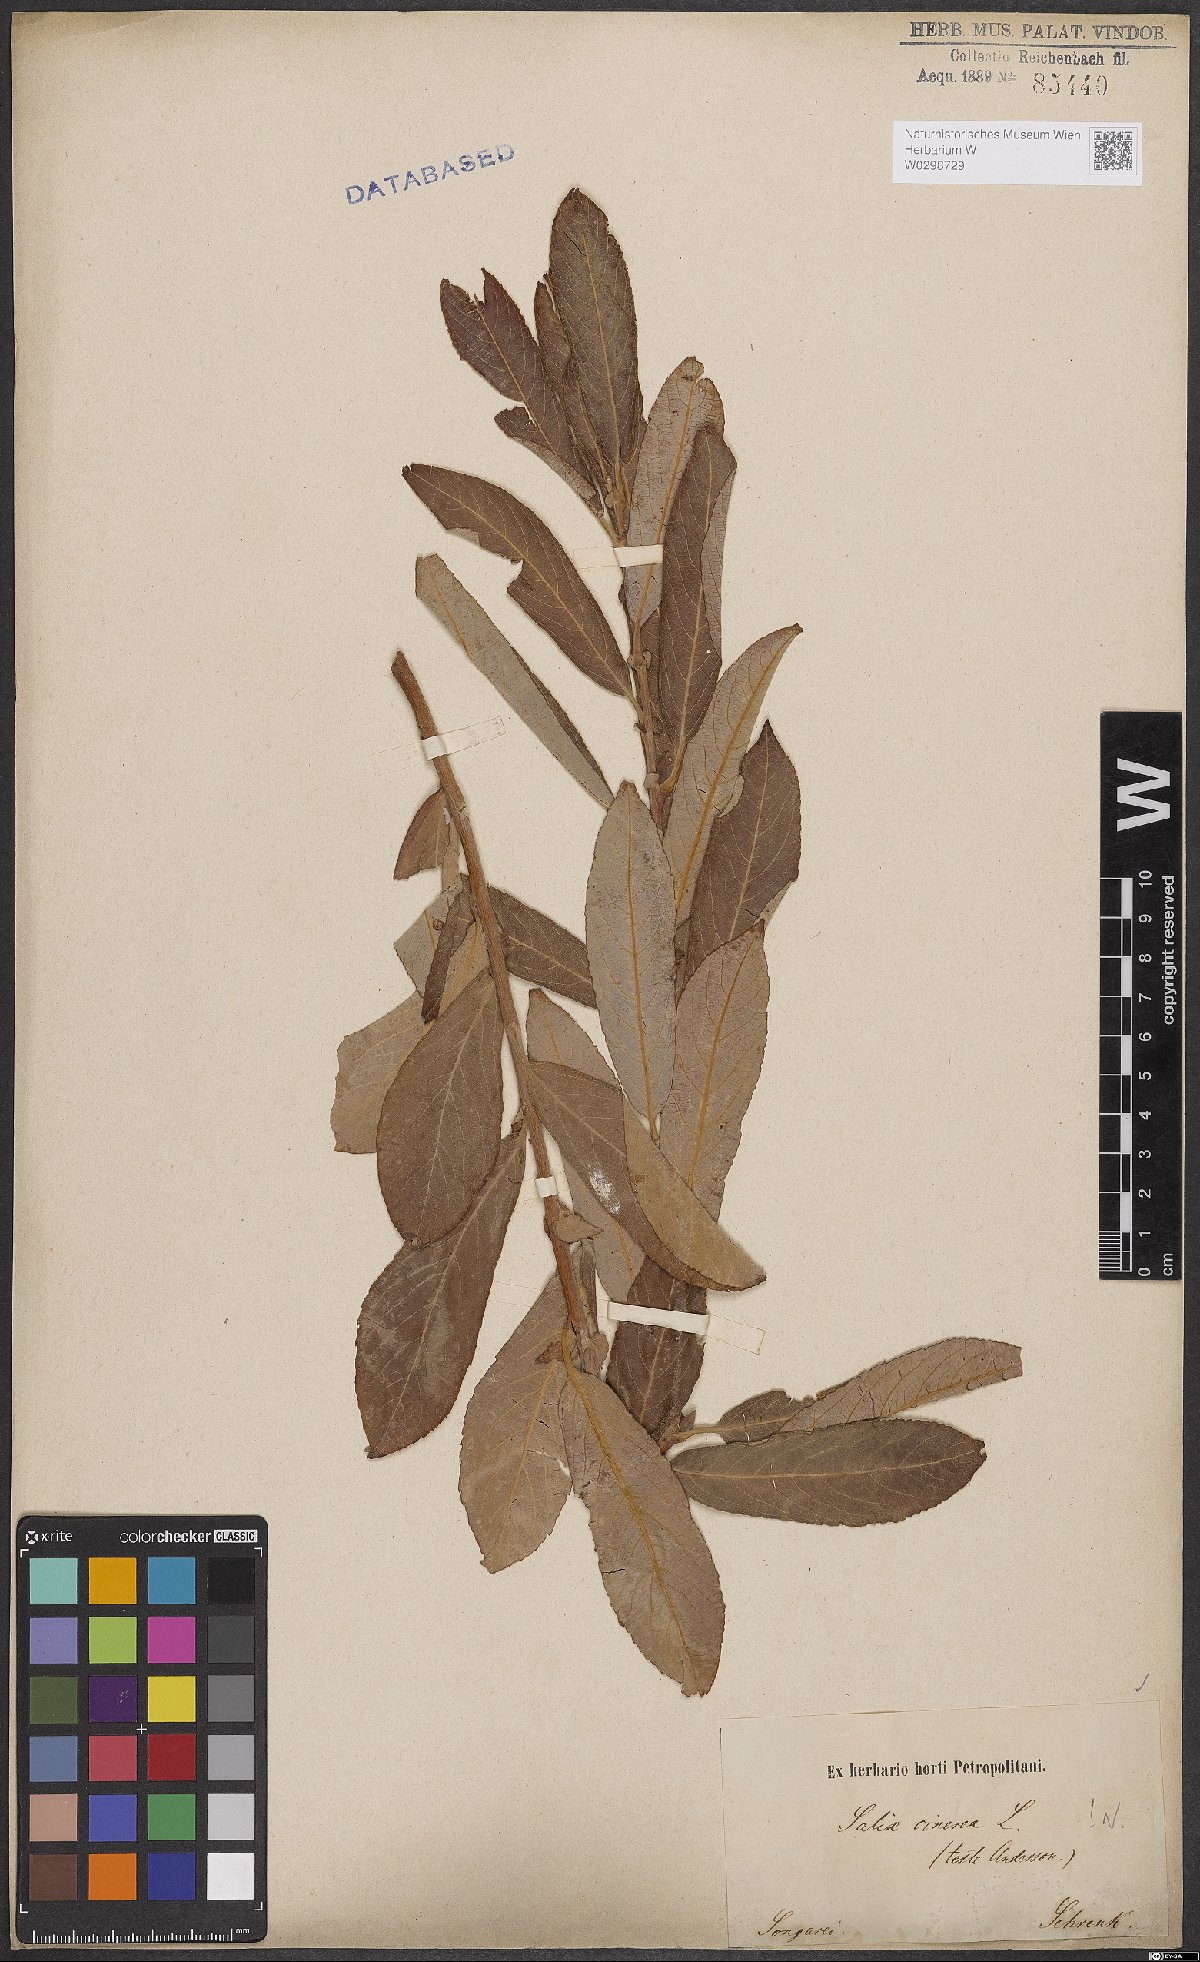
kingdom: Plantae
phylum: Tracheophyta
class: Magnoliopsida
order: Malpighiales
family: Salicaceae
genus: Salix
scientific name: Salix cinerea
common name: Common sallow
